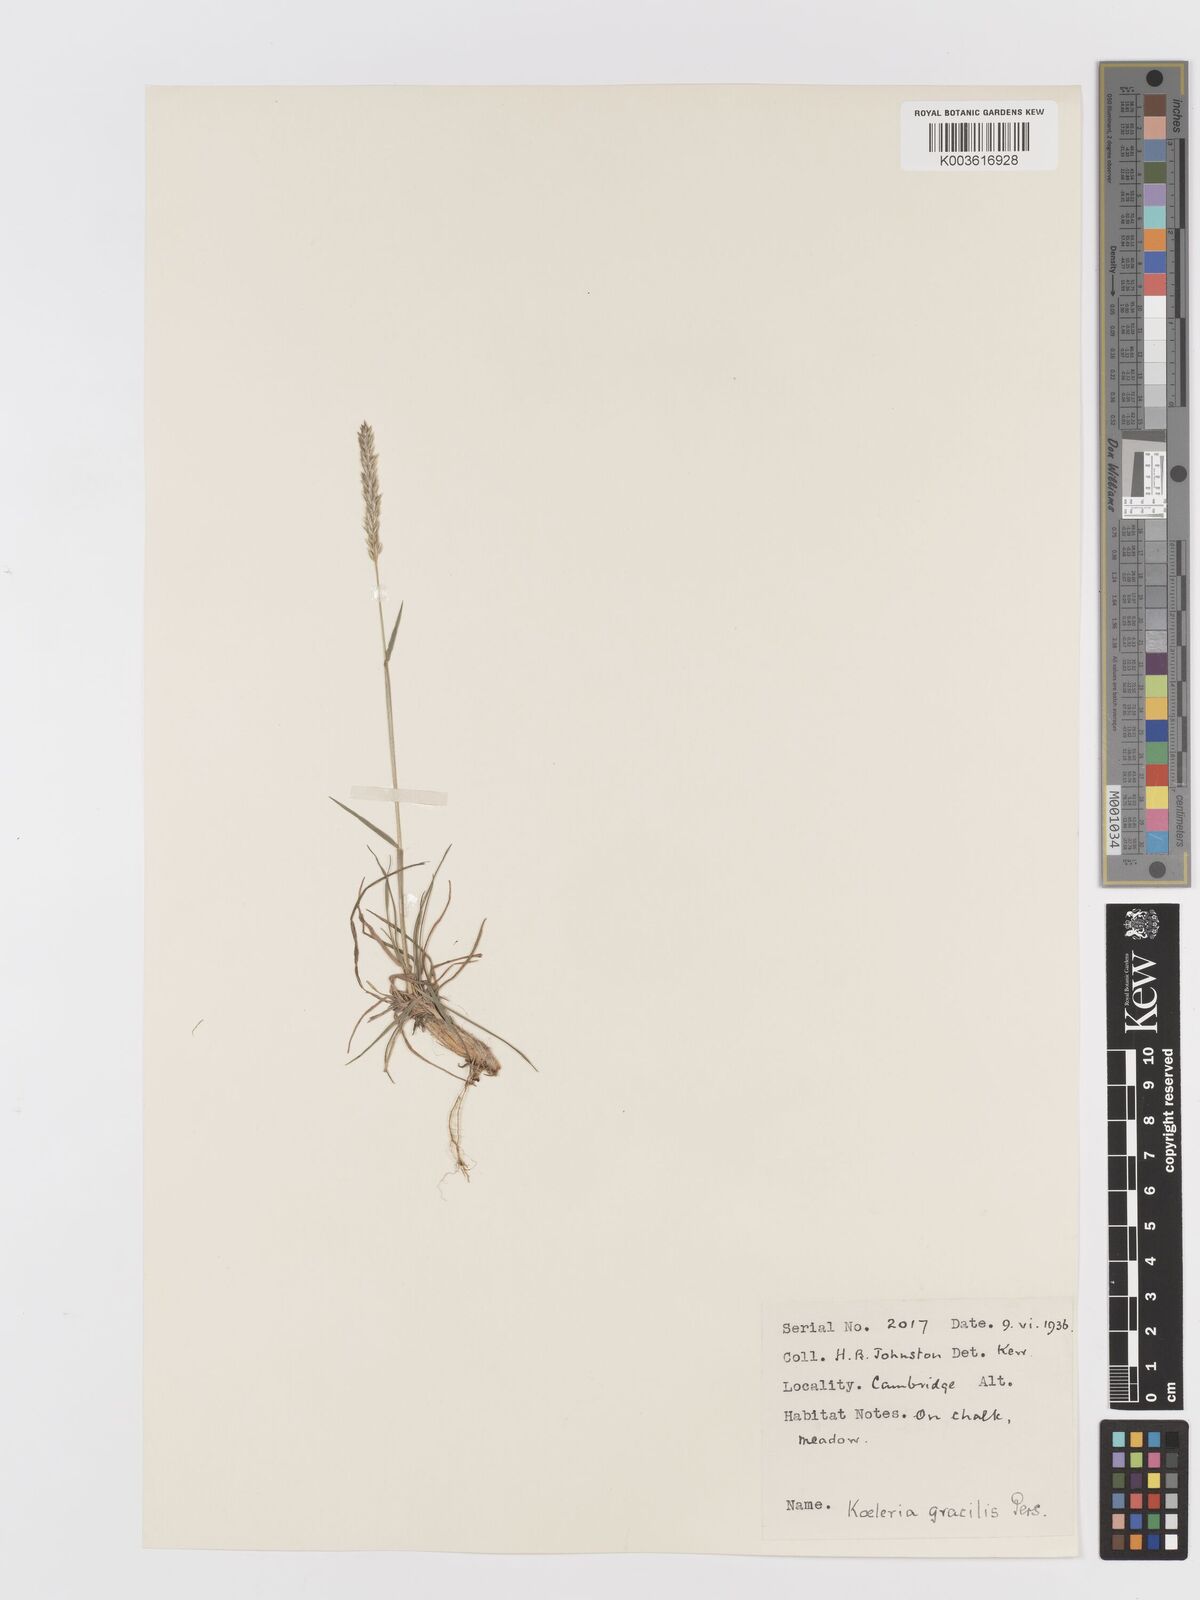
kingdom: Plantae
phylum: Tracheophyta
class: Liliopsida
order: Poales
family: Poaceae
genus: Koeleria
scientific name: Koeleria macrantha
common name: Crested hair-grass
